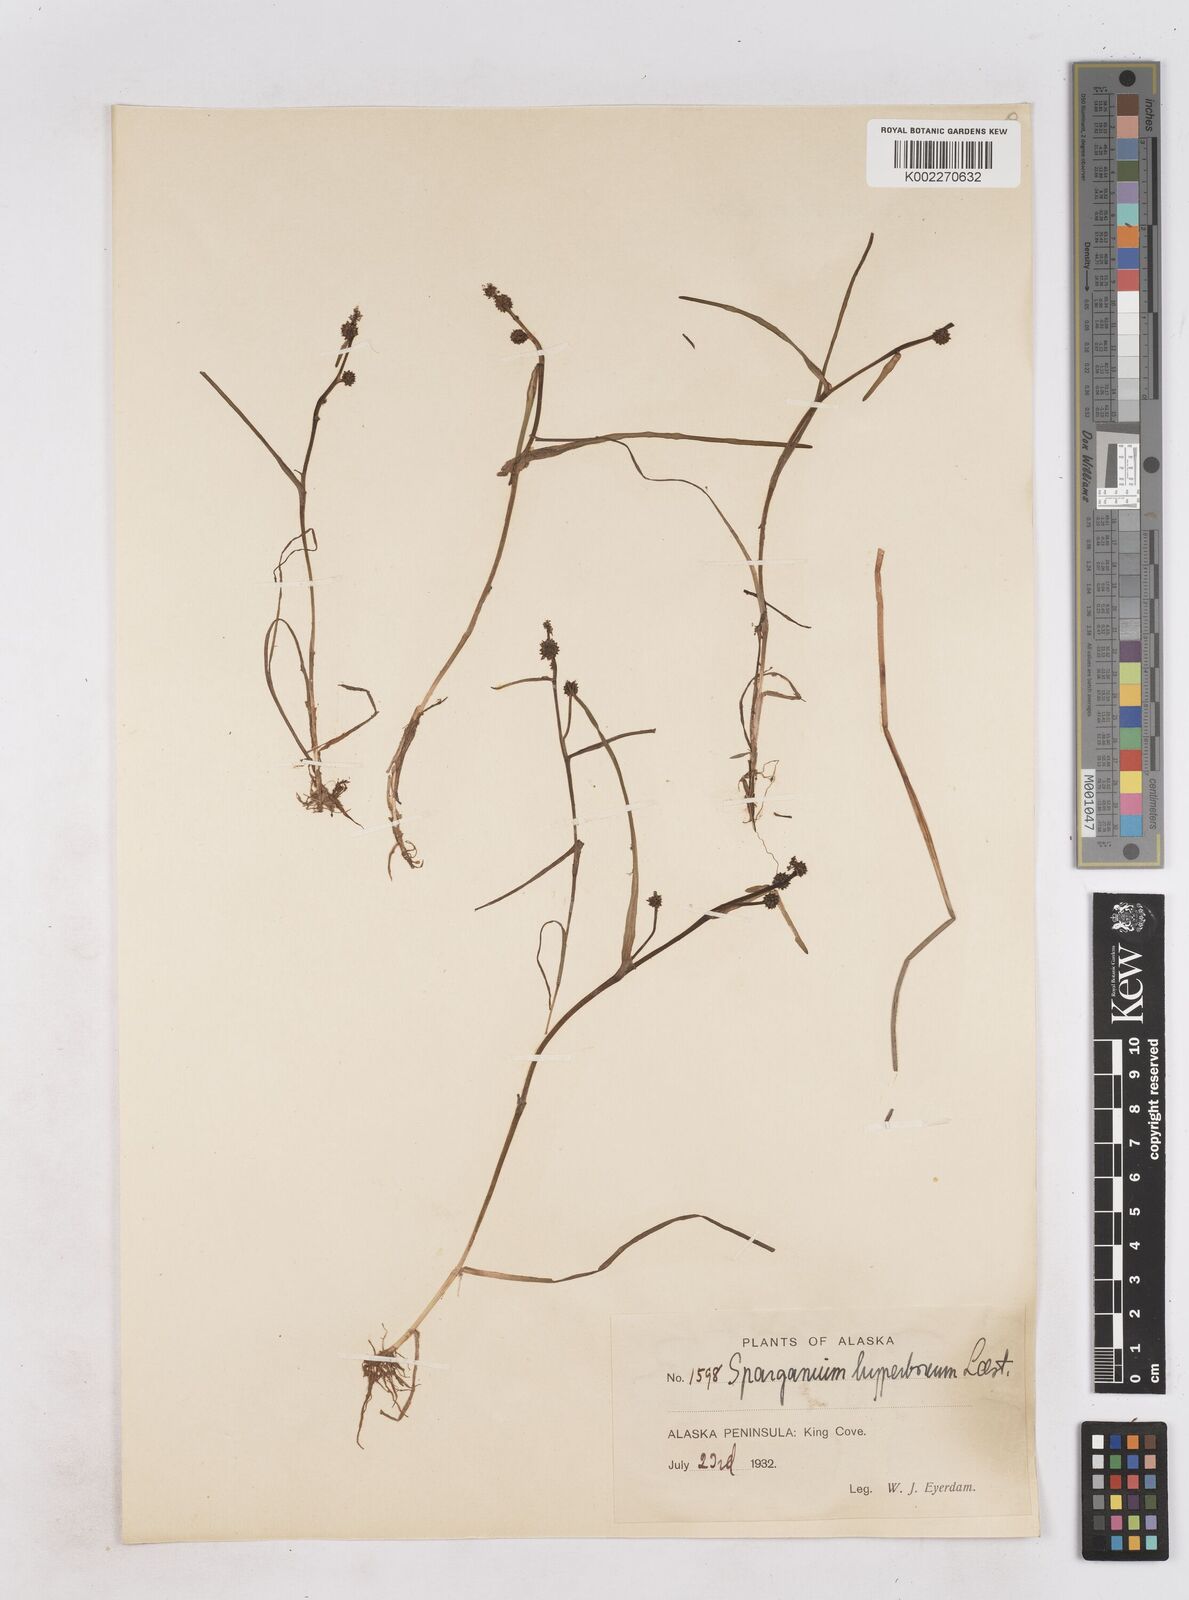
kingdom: Plantae
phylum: Tracheophyta
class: Liliopsida
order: Poales
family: Typhaceae
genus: Sparganium
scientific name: Sparganium hyperboreum
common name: Arctic burreed
